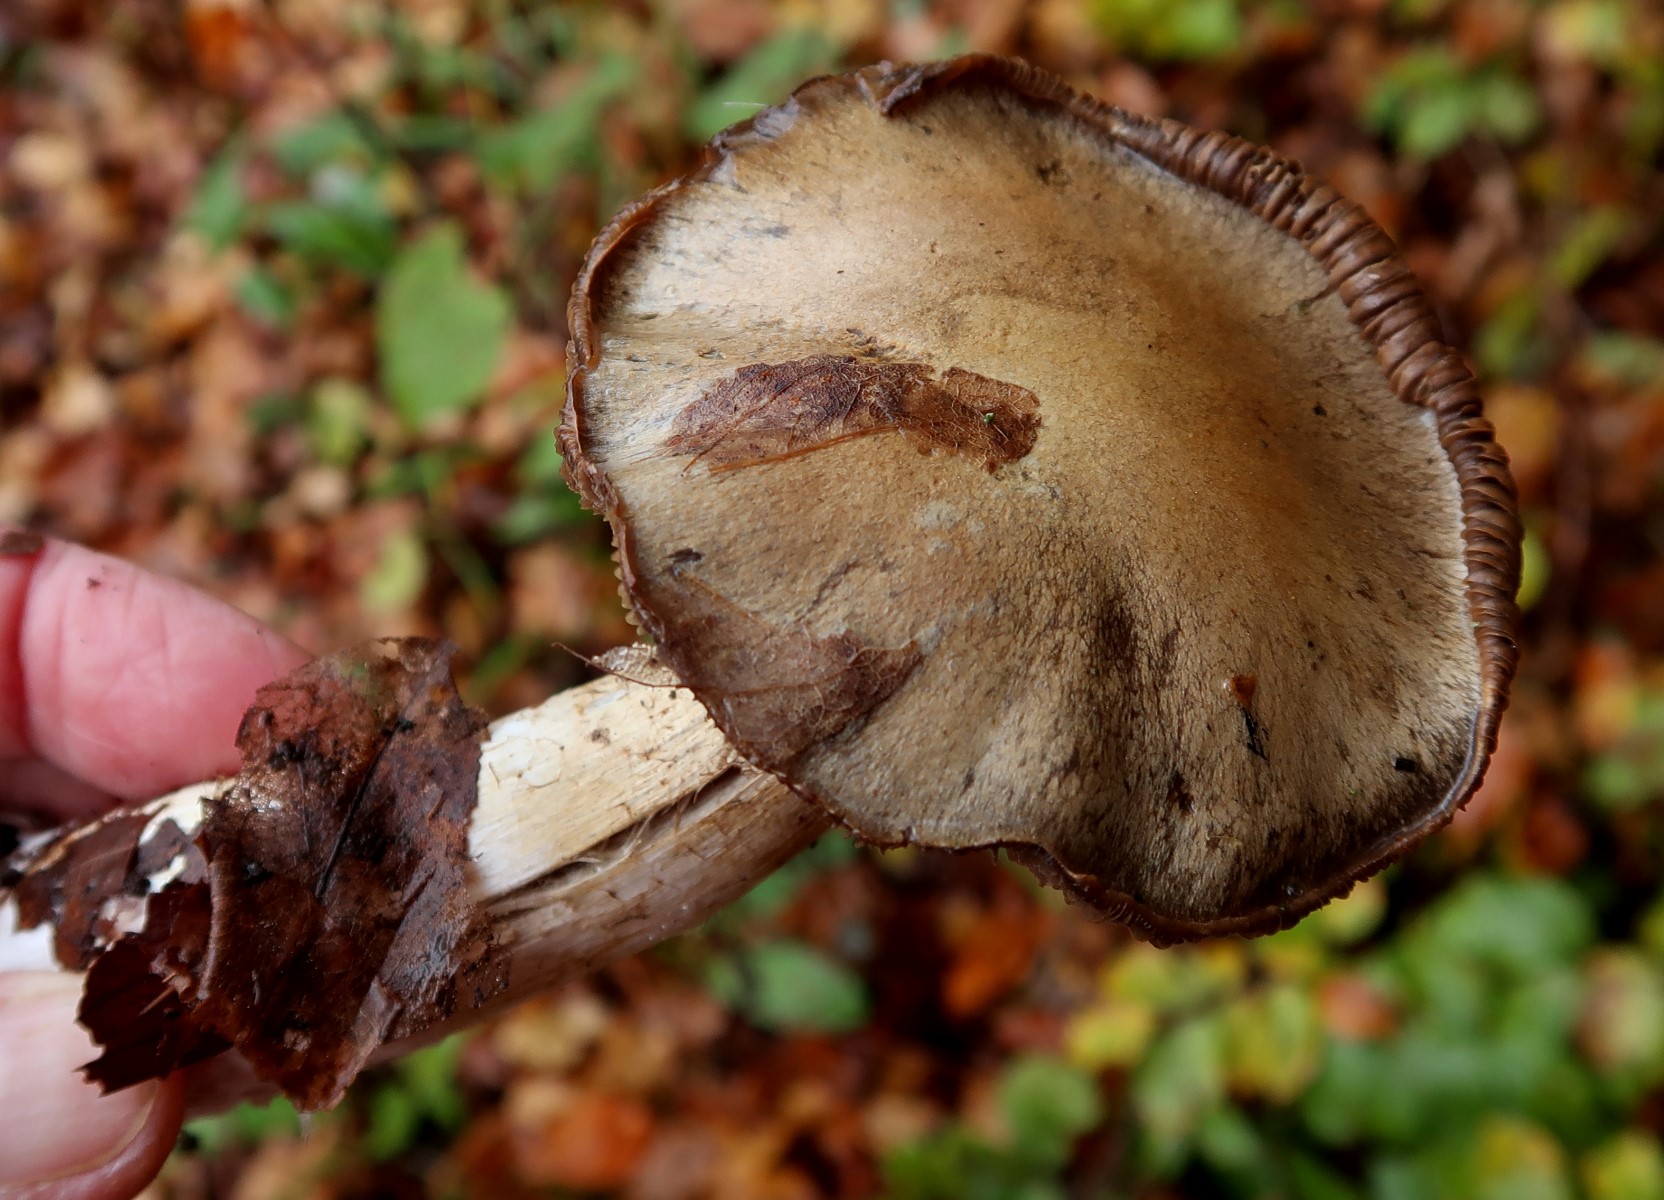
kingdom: Fungi
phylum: Basidiomycota
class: Agaricomycetes
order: Agaricales
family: Cortinariaceae
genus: Cortinarius
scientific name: Cortinarius
